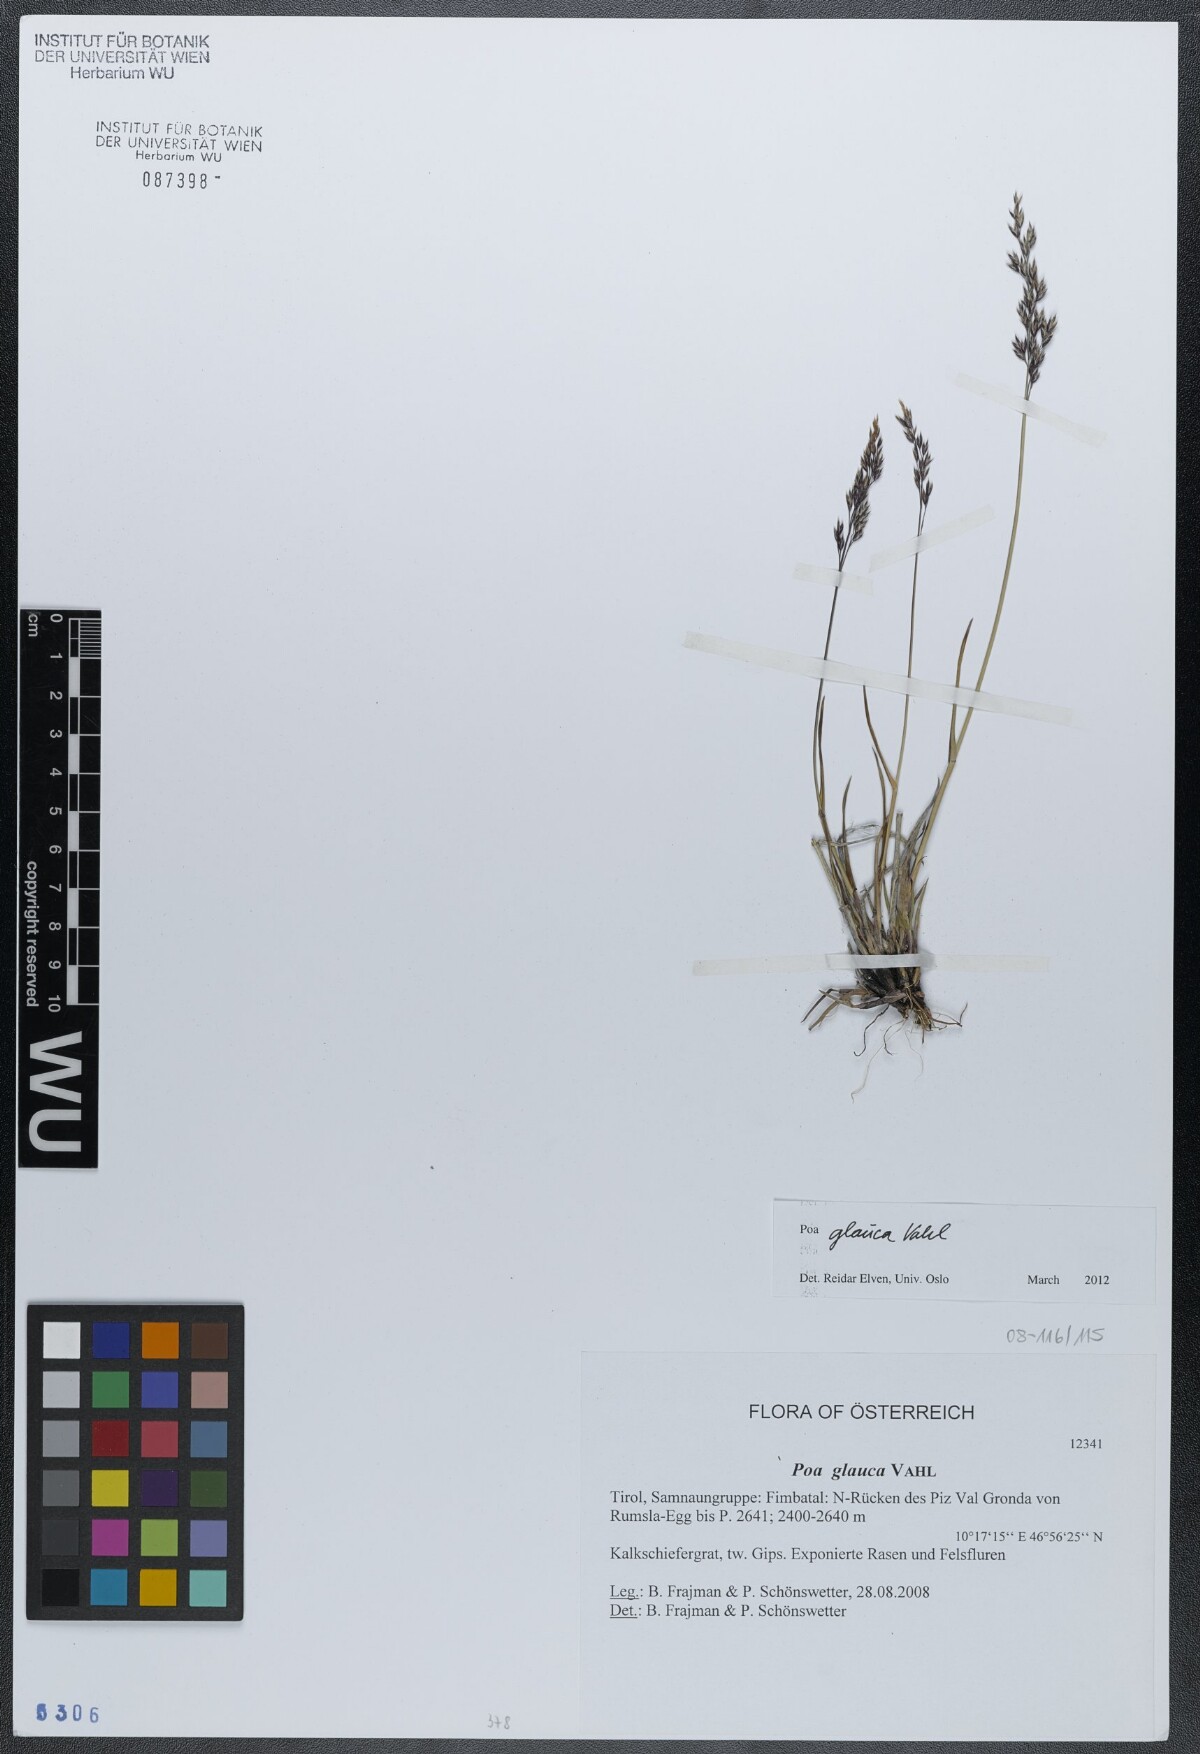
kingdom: Plantae
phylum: Tracheophyta
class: Liliopsida
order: Poales
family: Poaceae
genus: Poa
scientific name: Poa glauca
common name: Glaucous bluegrass
